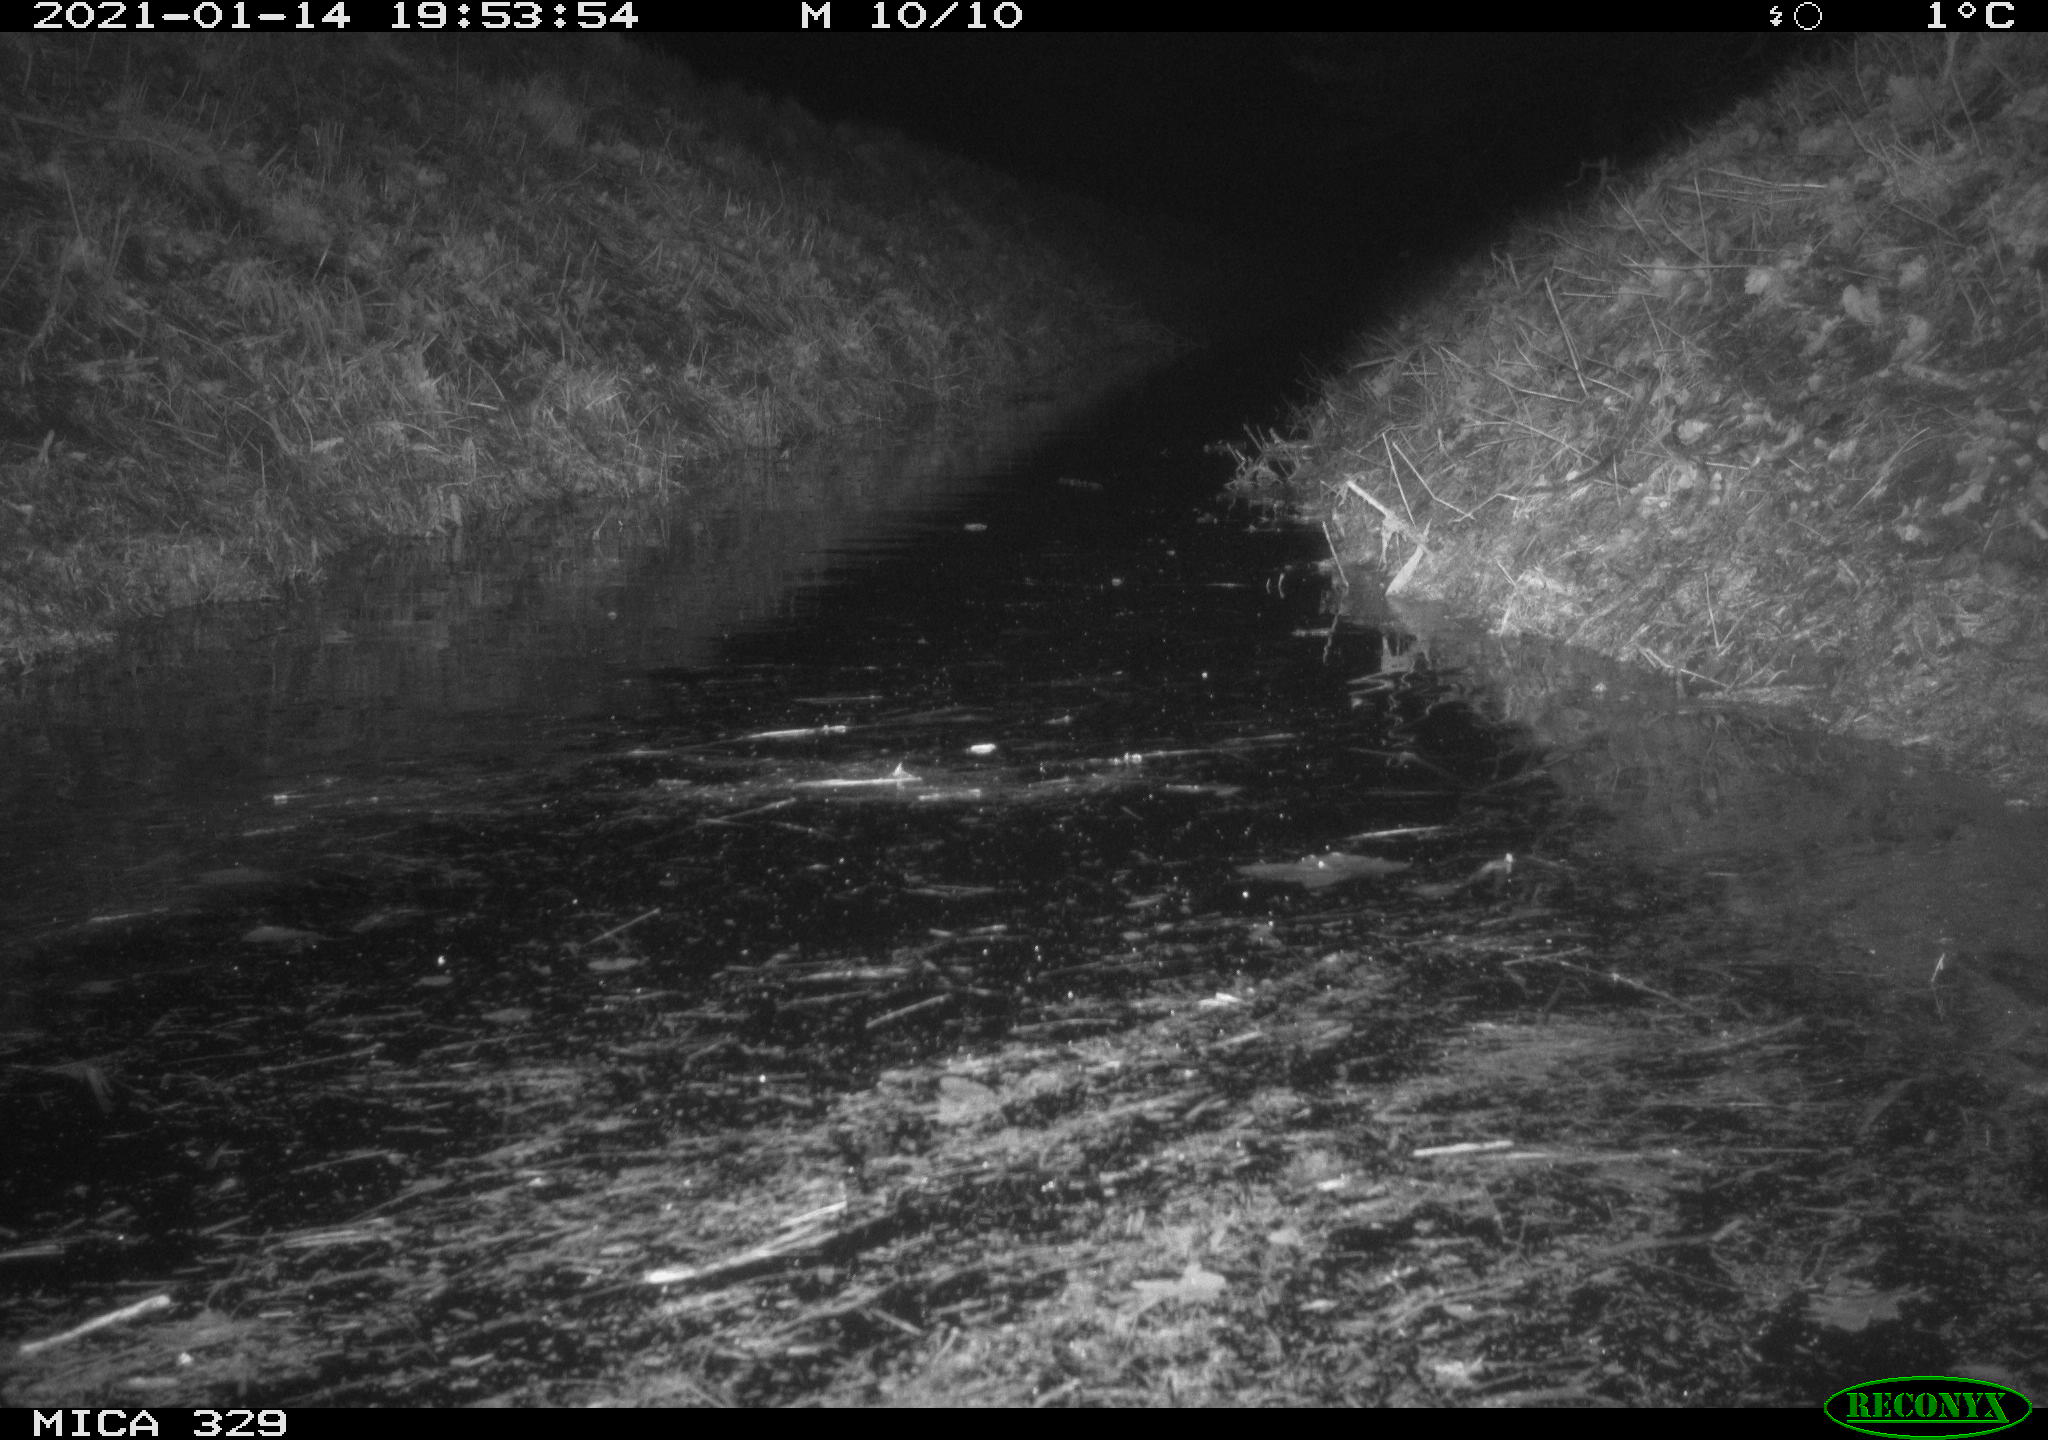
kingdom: Animalia
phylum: Chordata
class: Mammalia
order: Rodentia
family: Myocastoridae
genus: Myocastor
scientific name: Myocastor coypus
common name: Coypu
